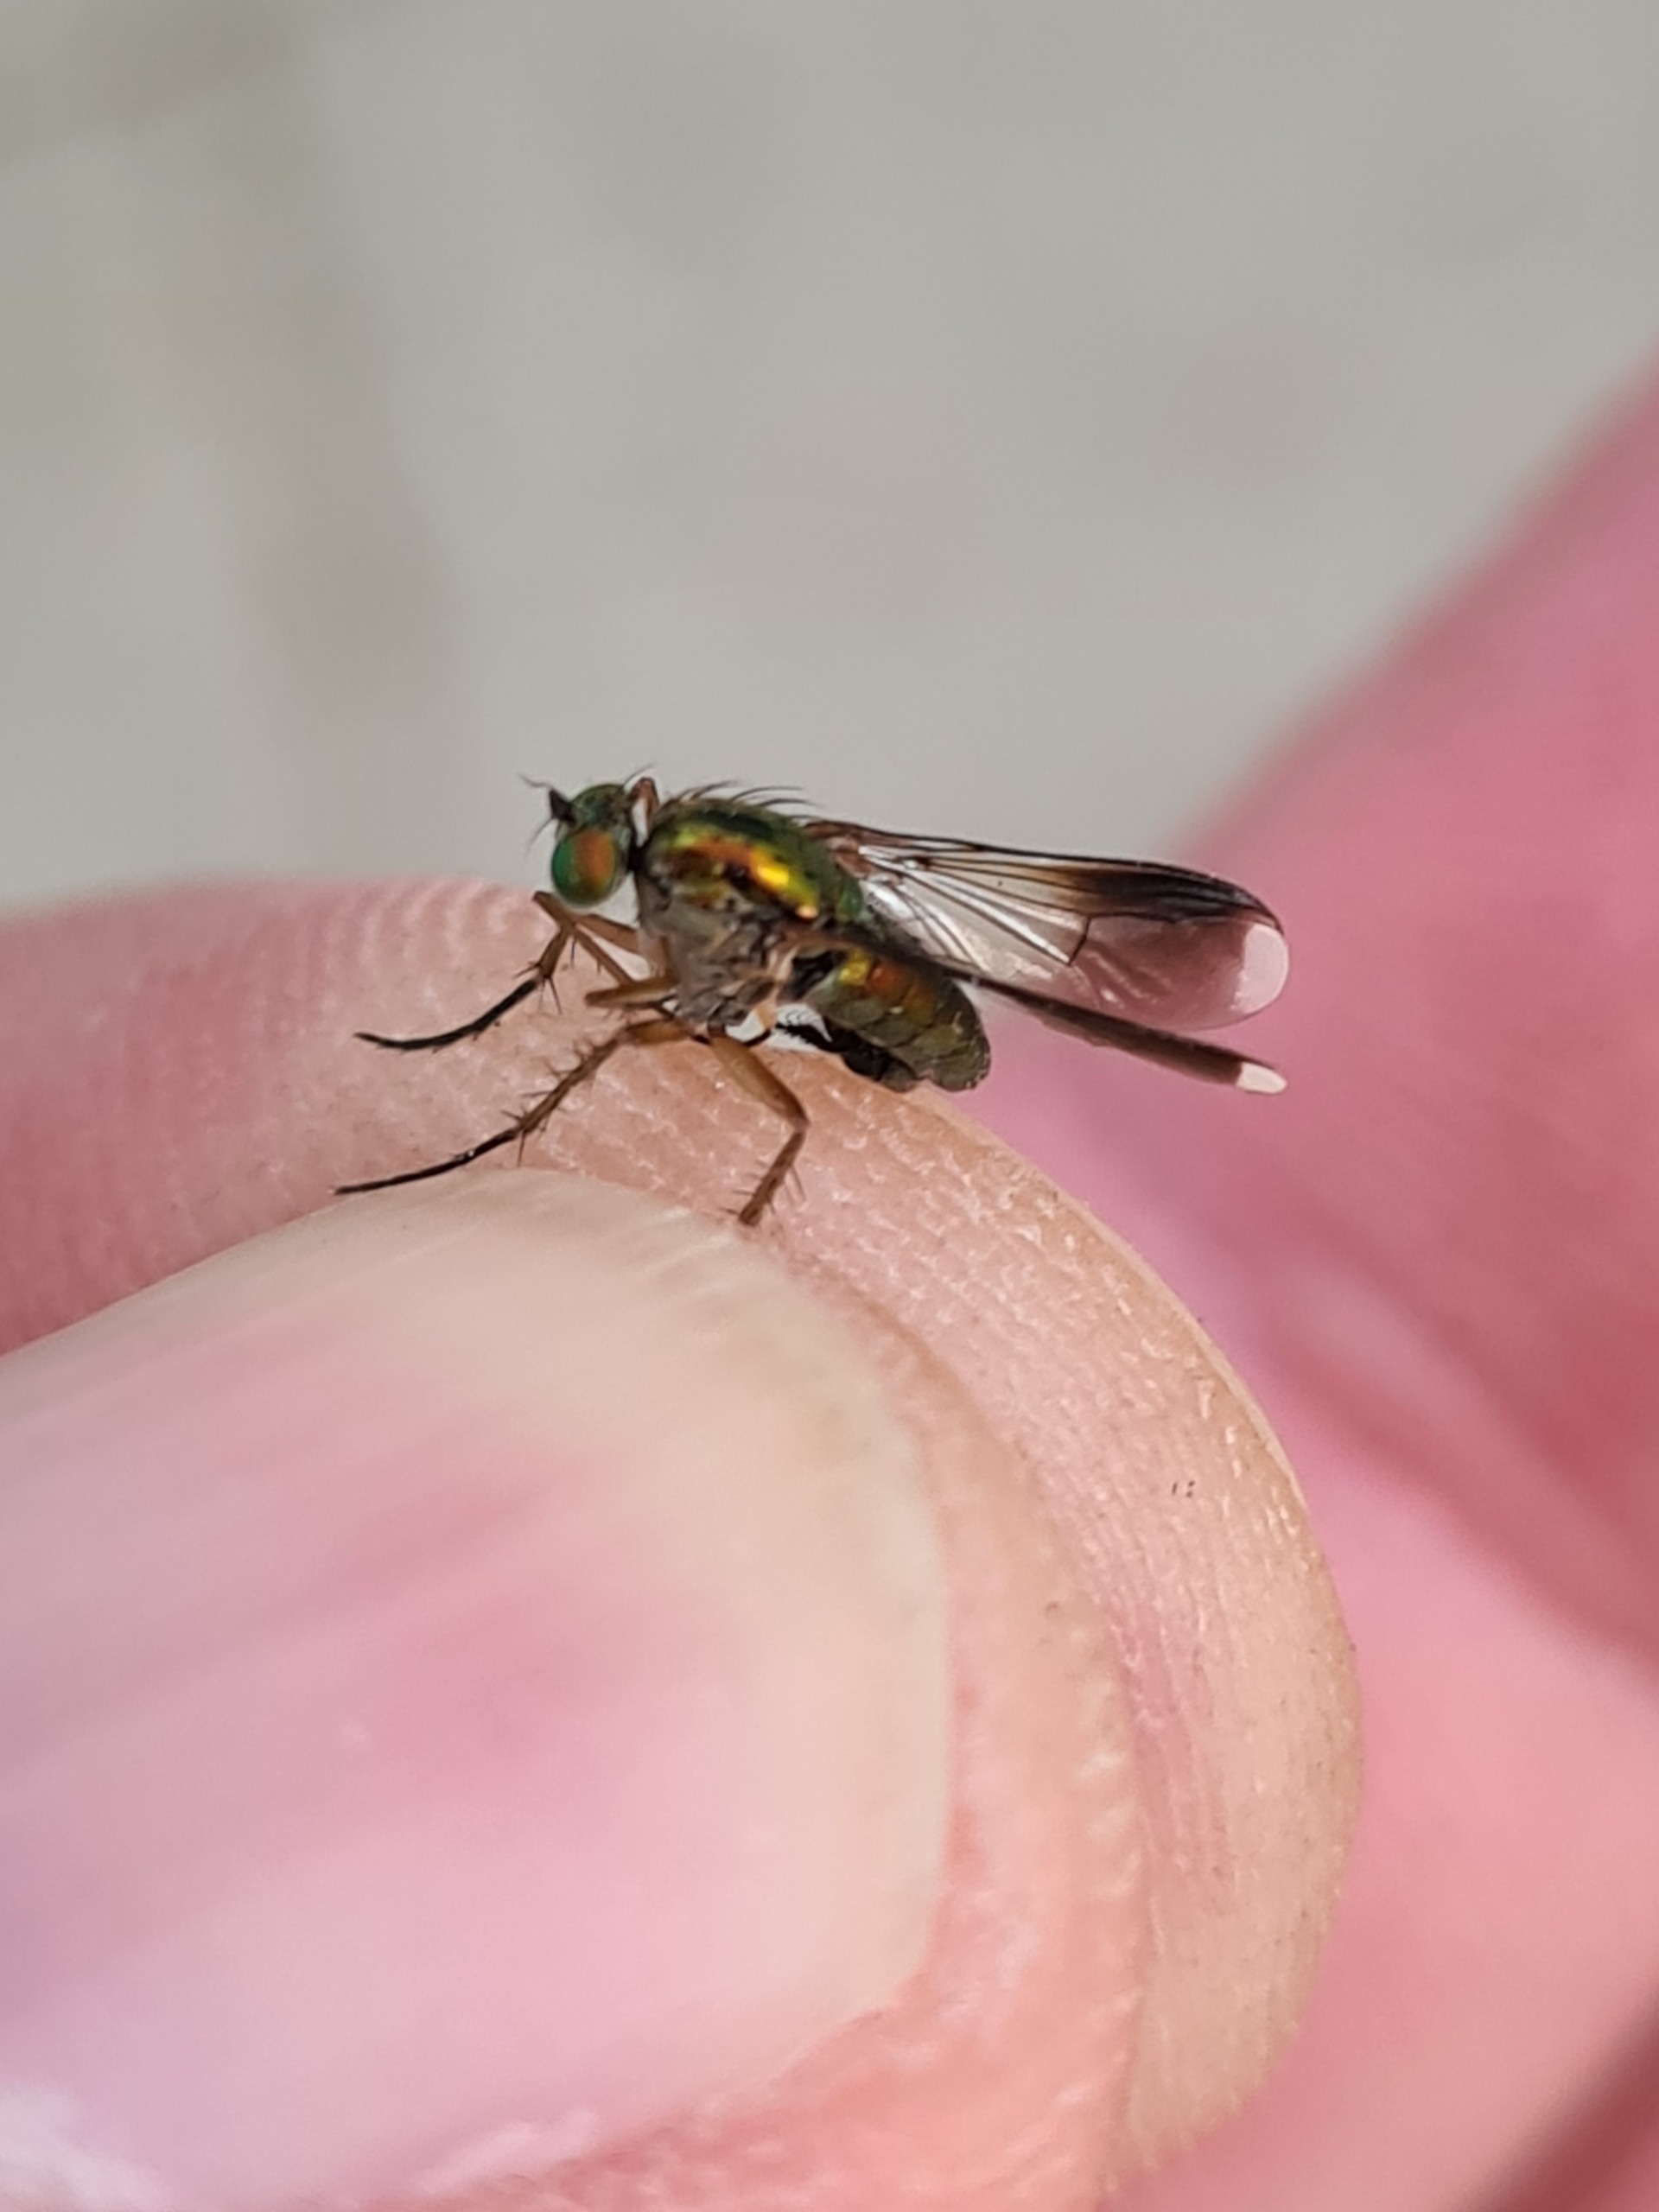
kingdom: Animalia
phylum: Arthropoda
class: Insecta
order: Diptera
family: Dolichopodidae
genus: Poecilobothrus
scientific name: Poecilobothrus nobilitatus
